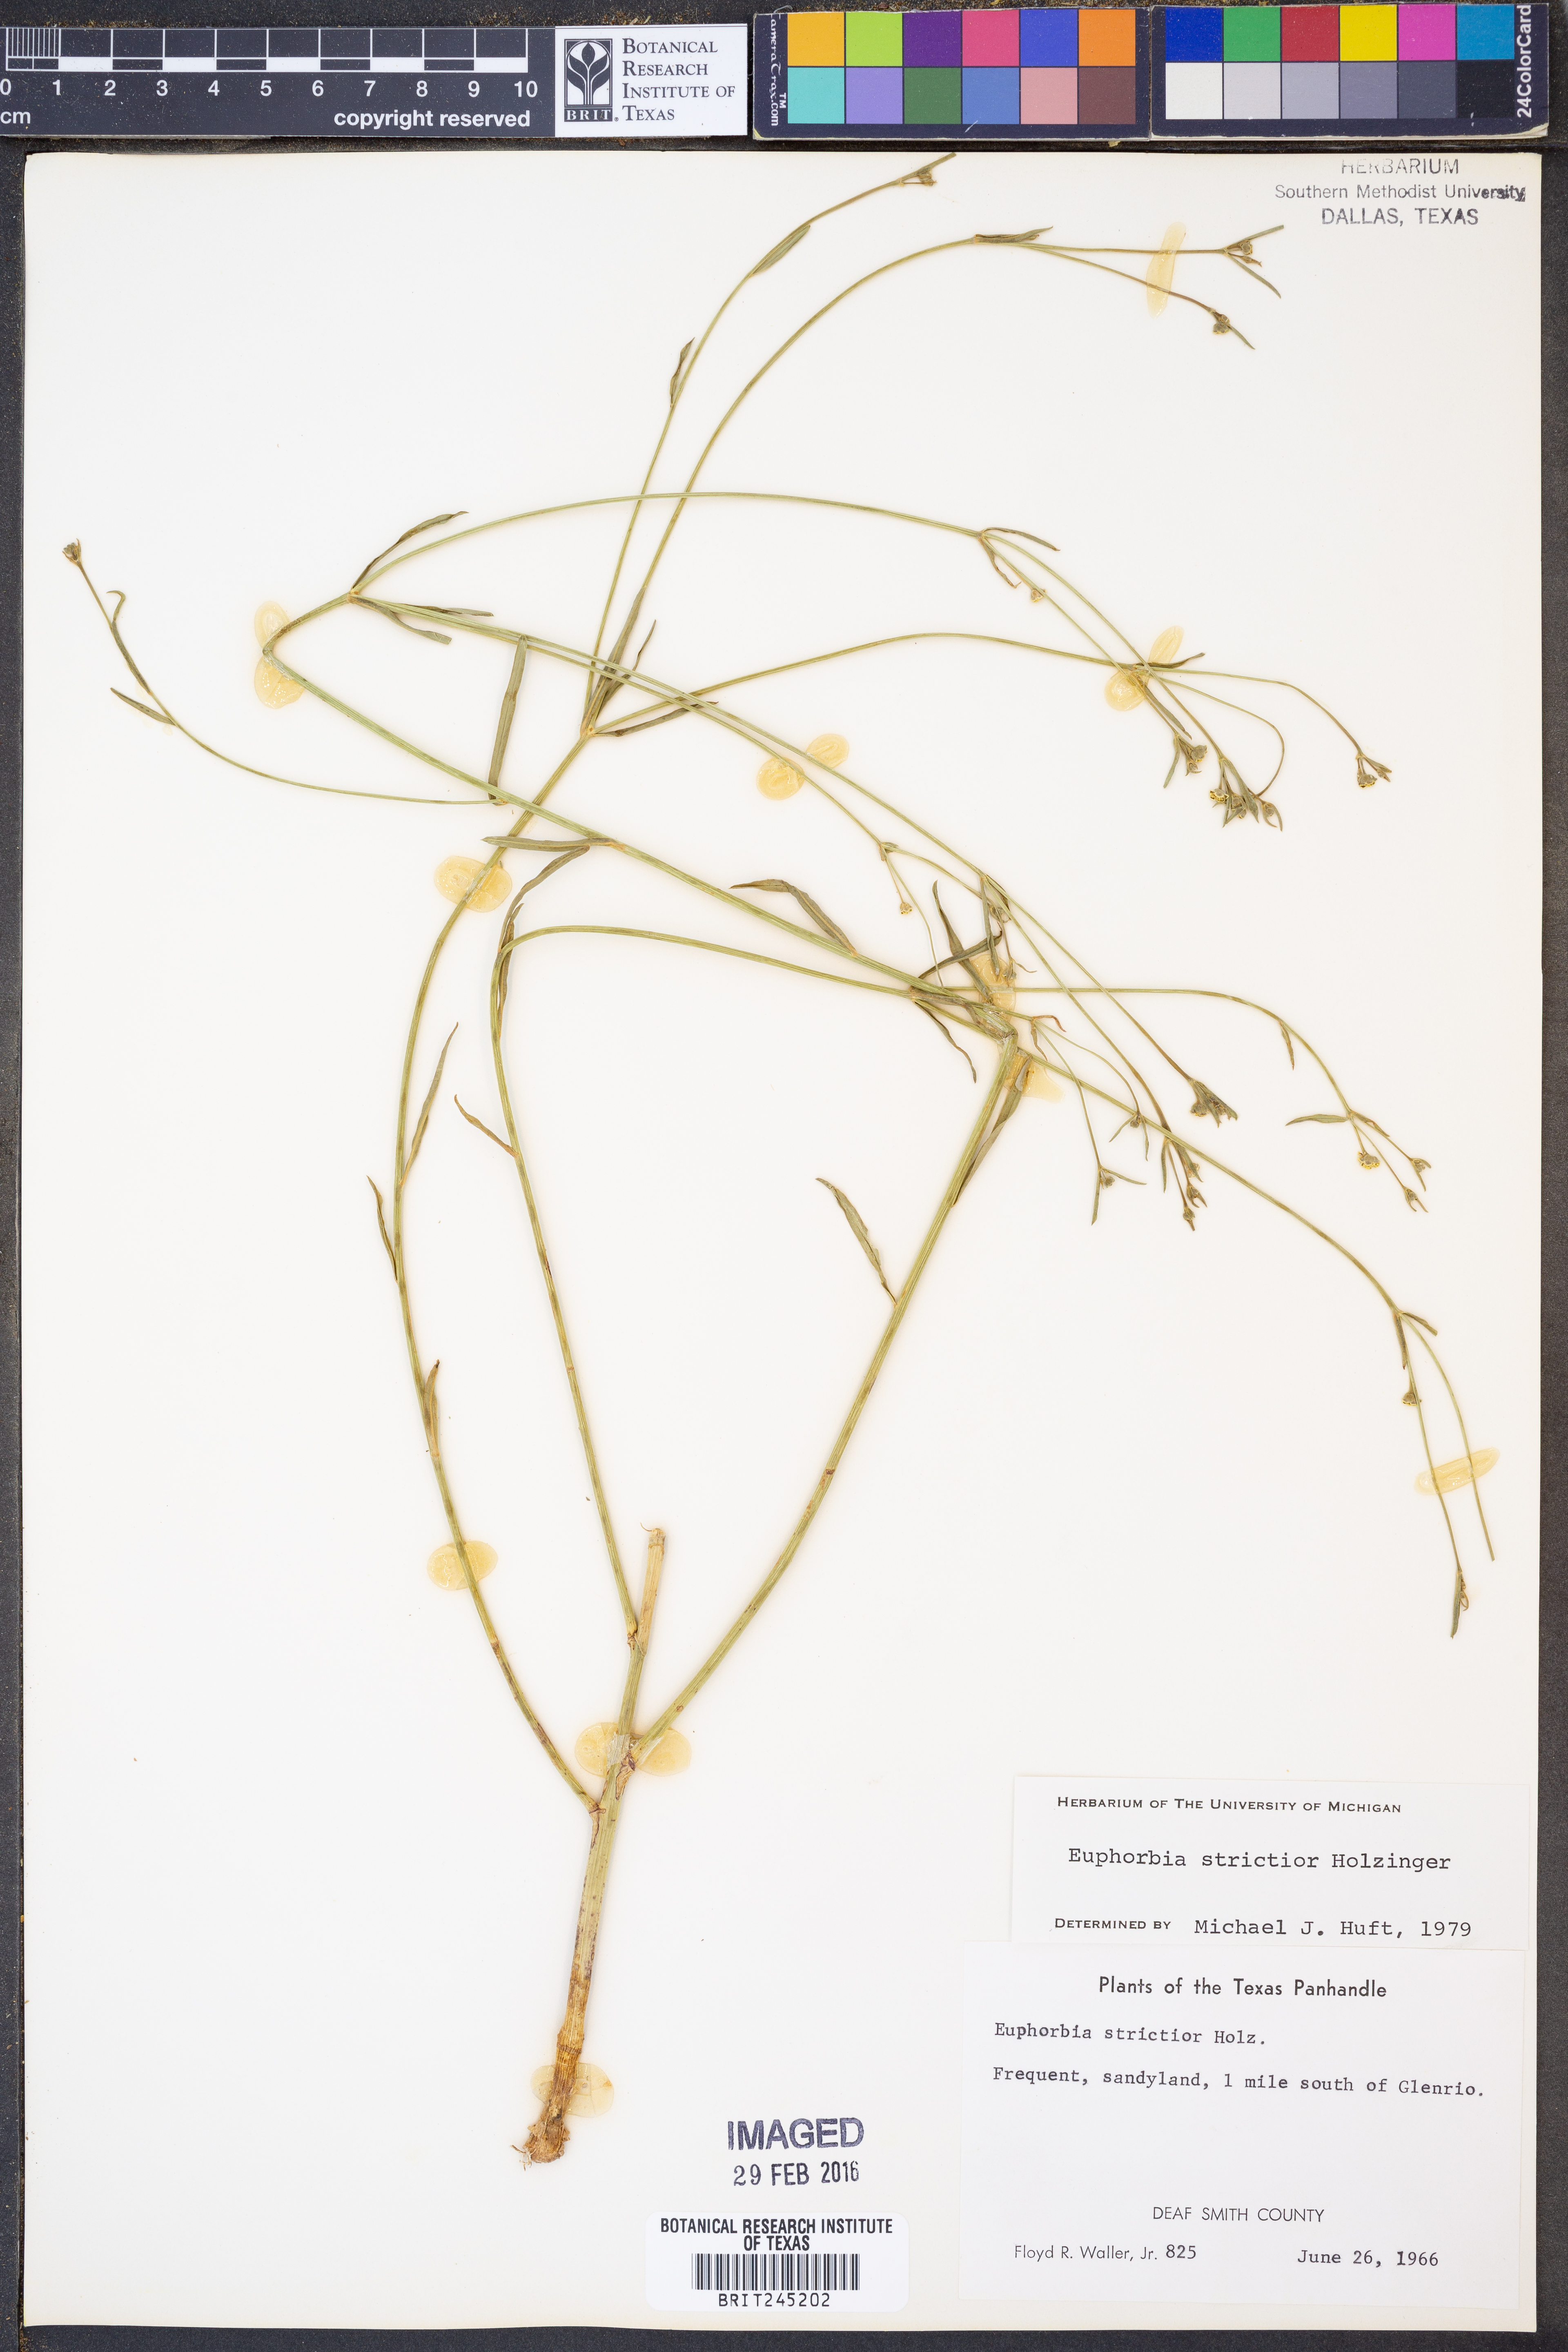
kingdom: Plantae
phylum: Tracheophyta
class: Magnoliopsida
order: Malpighiales
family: Euphorbiaceae
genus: Euphorbia
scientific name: Euphorbia strictior
